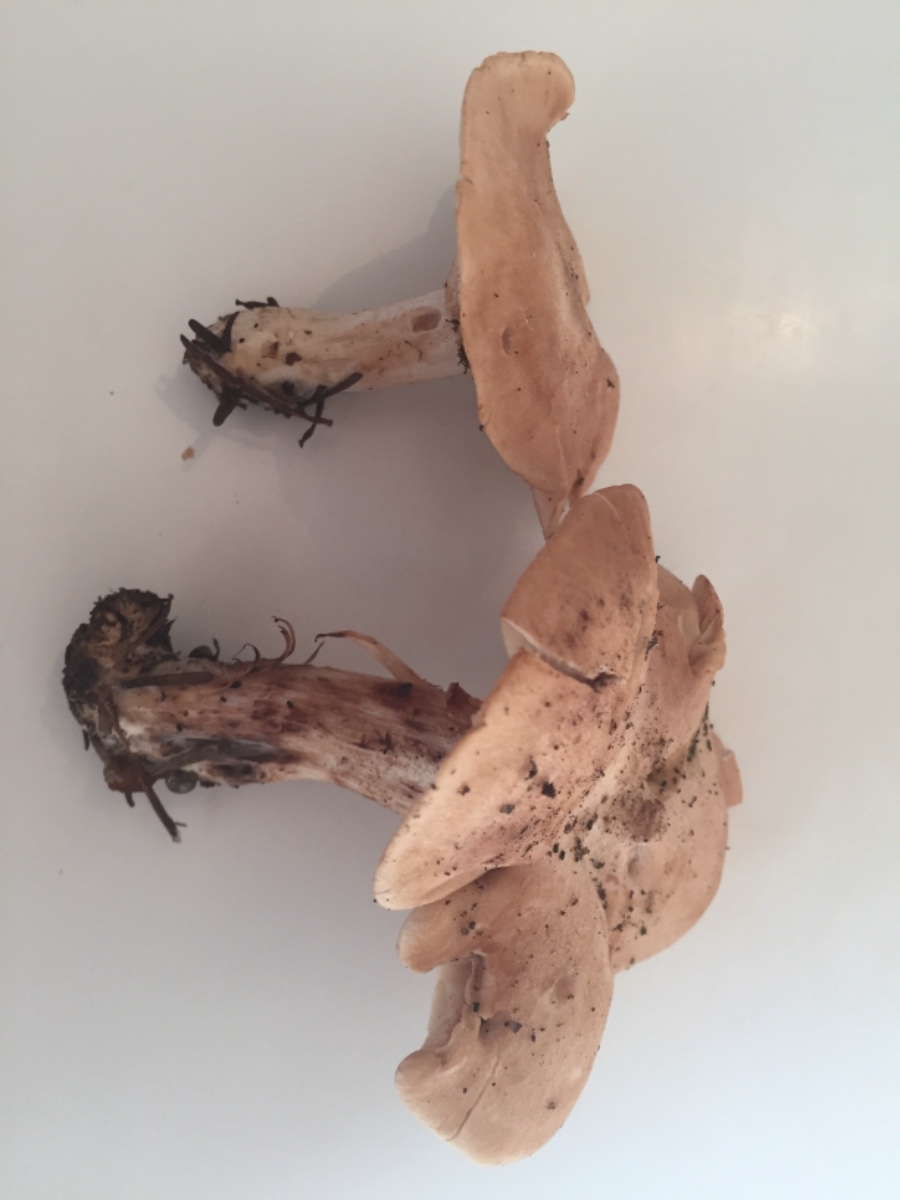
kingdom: Fungi
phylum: Basidiomycota
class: Agaricomycetes
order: Agaricales
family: Entolomataceae
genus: Clitopilus
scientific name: Clitopilus geminus
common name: kødfarvet troldhat
